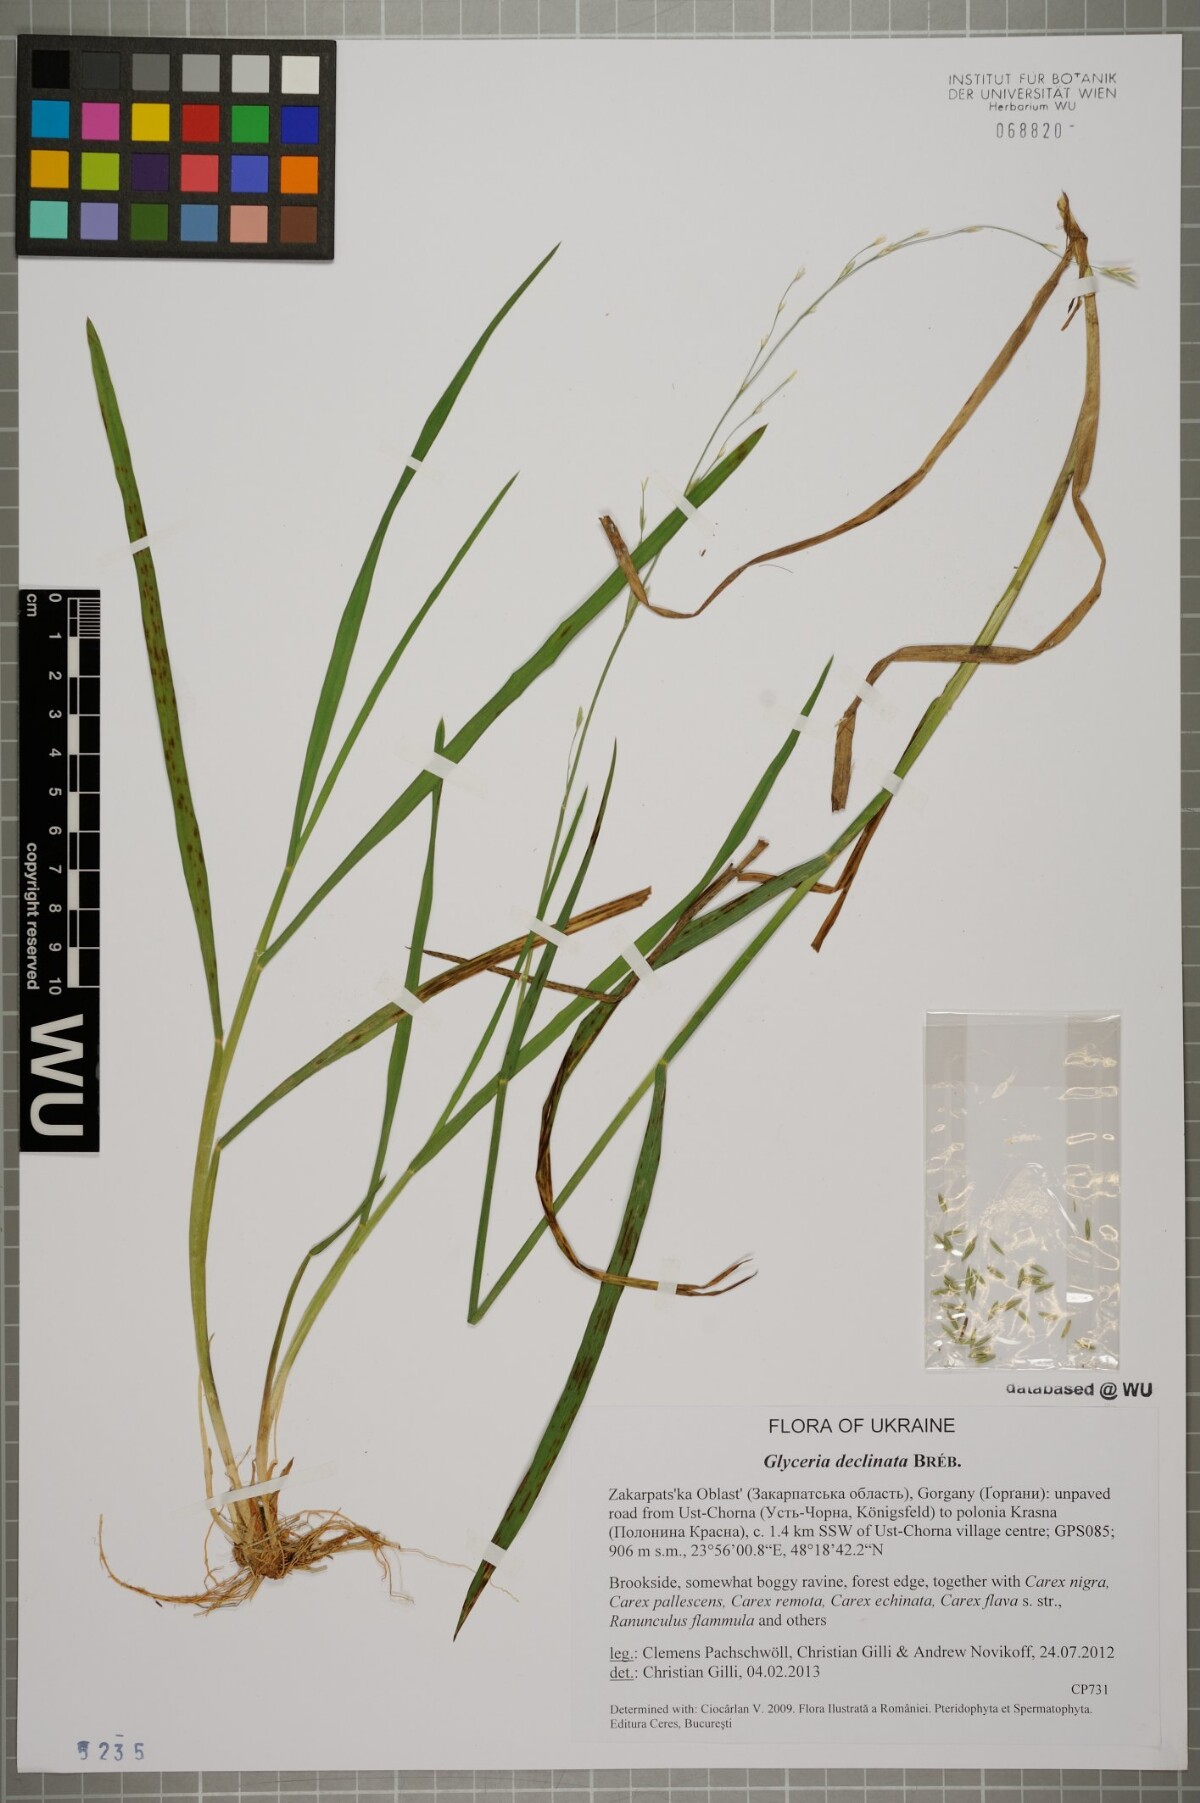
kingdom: Plantae
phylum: Tracheophyta
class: Liliopsida
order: Poales
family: Poaceae
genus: Glyceria
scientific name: Glyceria declinata
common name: Small sweet-grass
